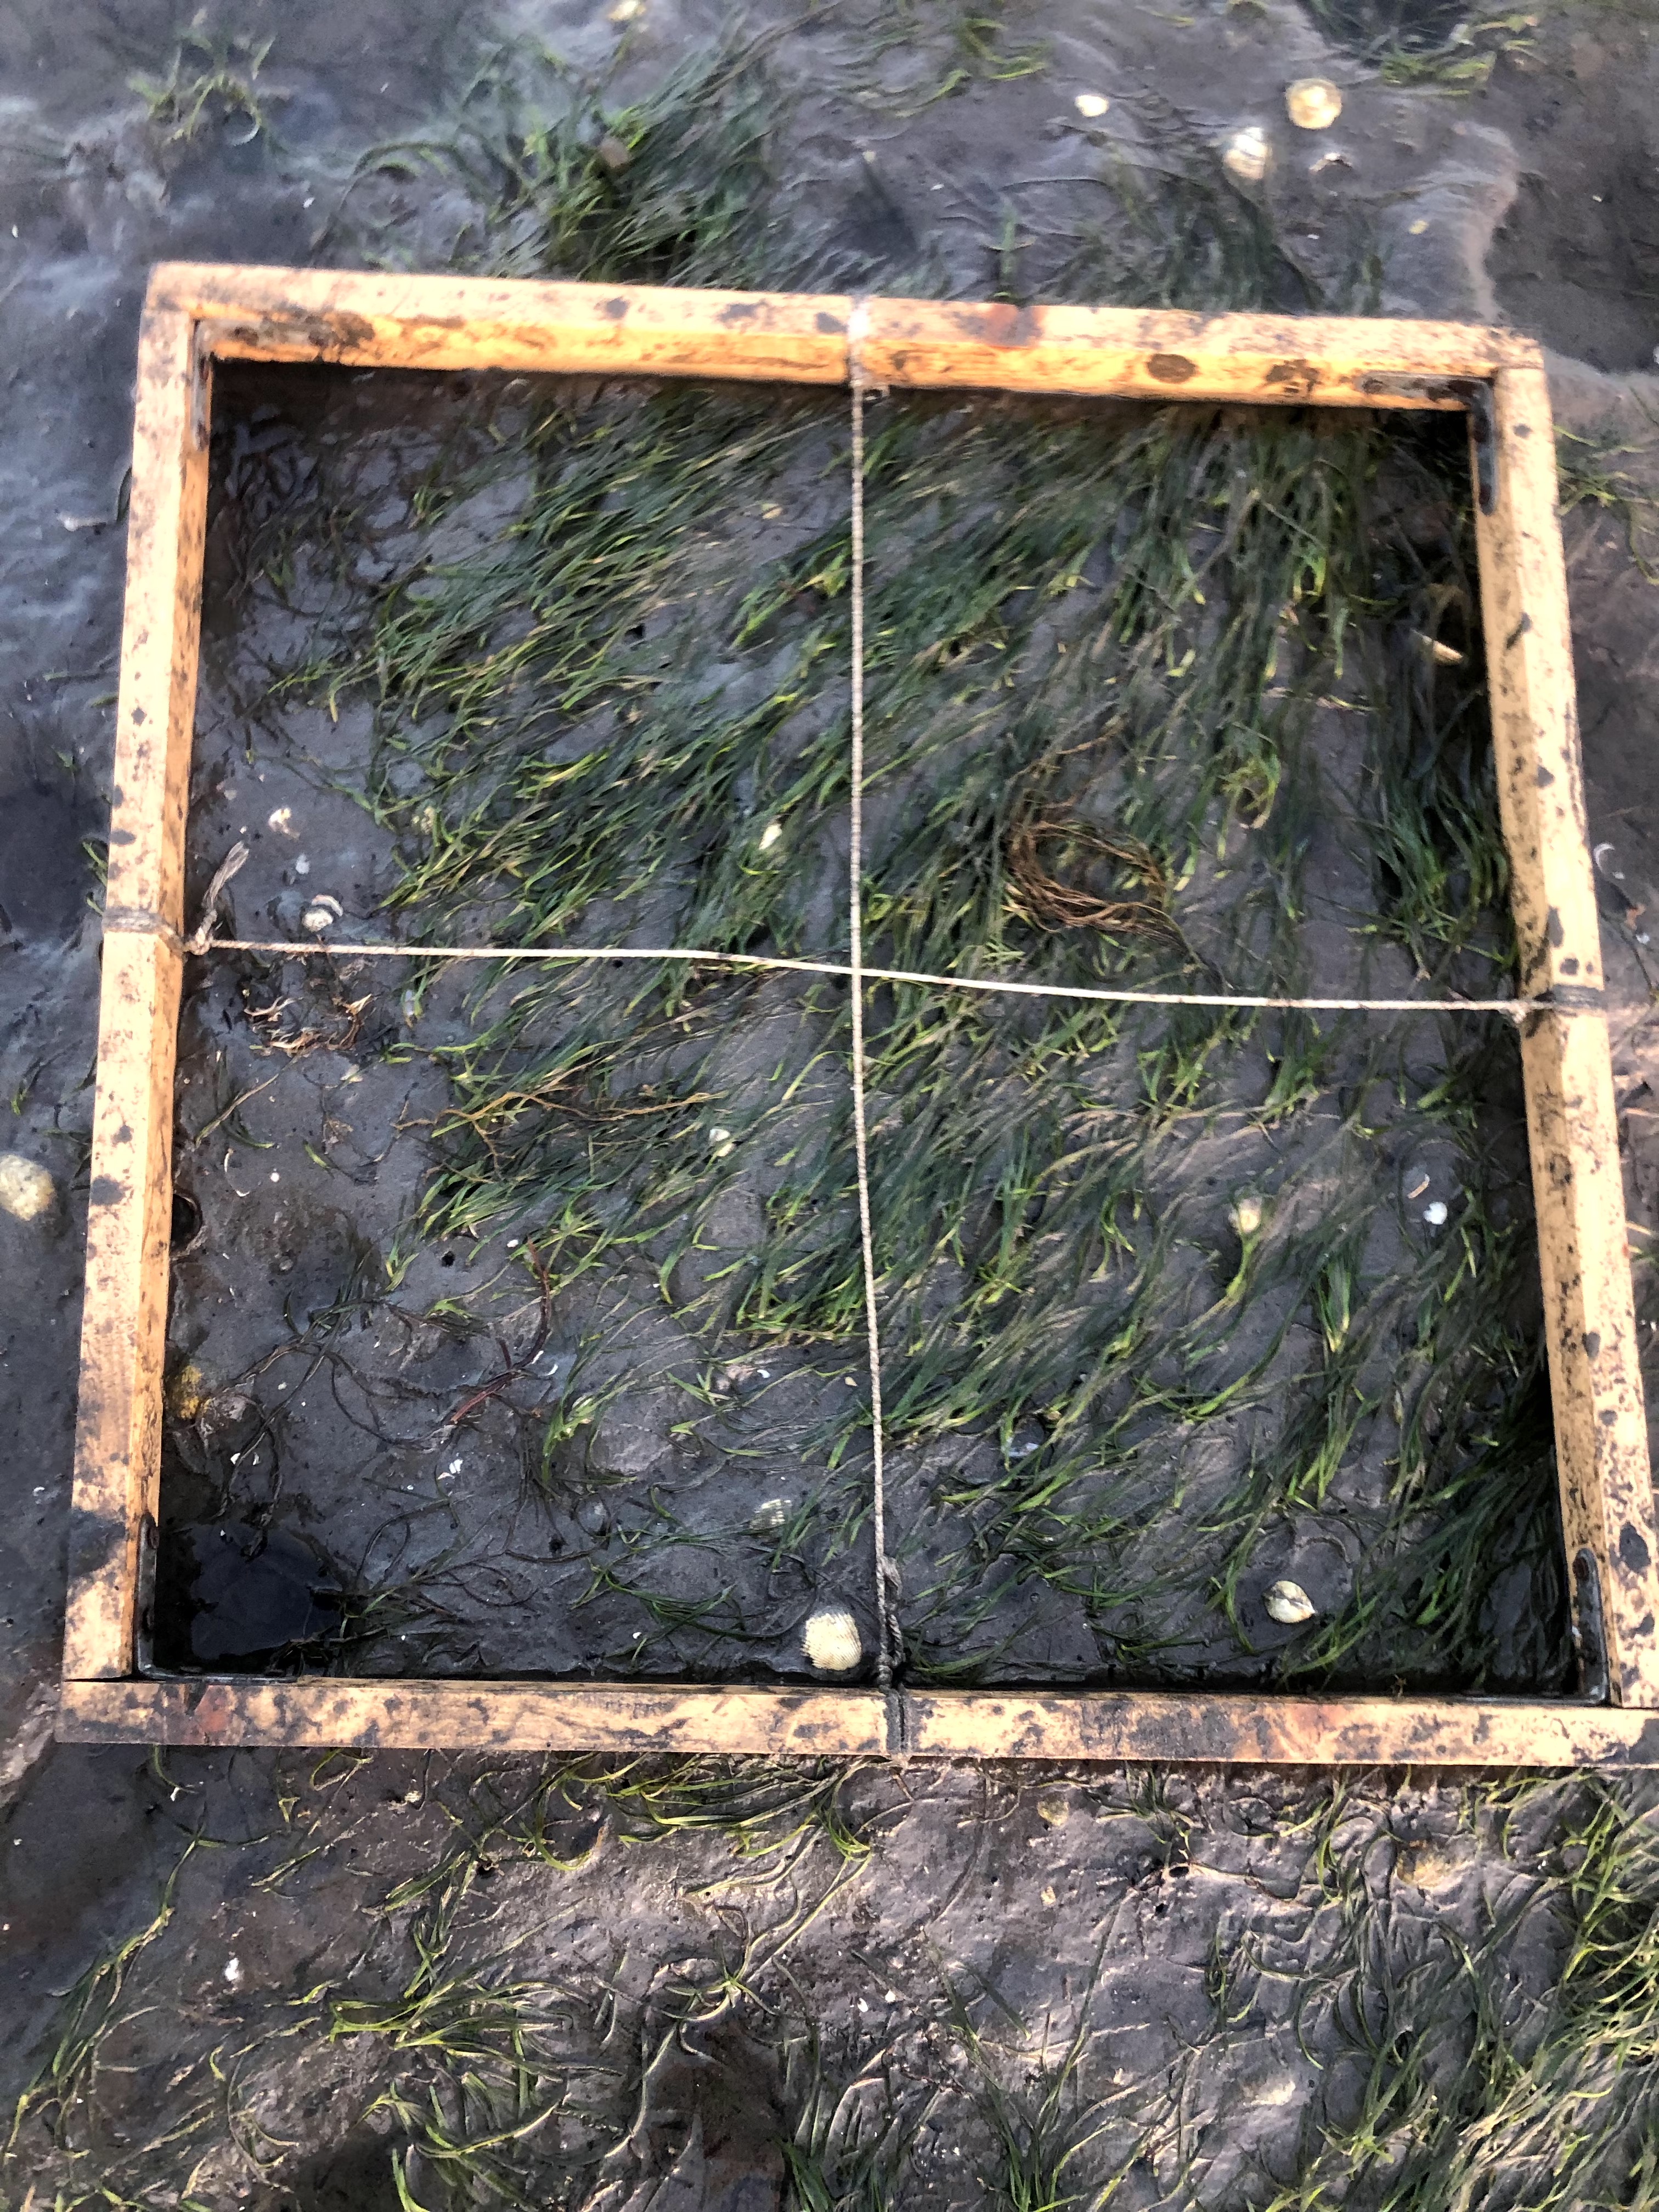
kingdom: Plantae
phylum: Rhodophyta
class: Florideophyceae
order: Gracilariales
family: Gracilariaceae
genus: Gracilaria
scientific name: Gracilaria vermiculophylla
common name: Algae
